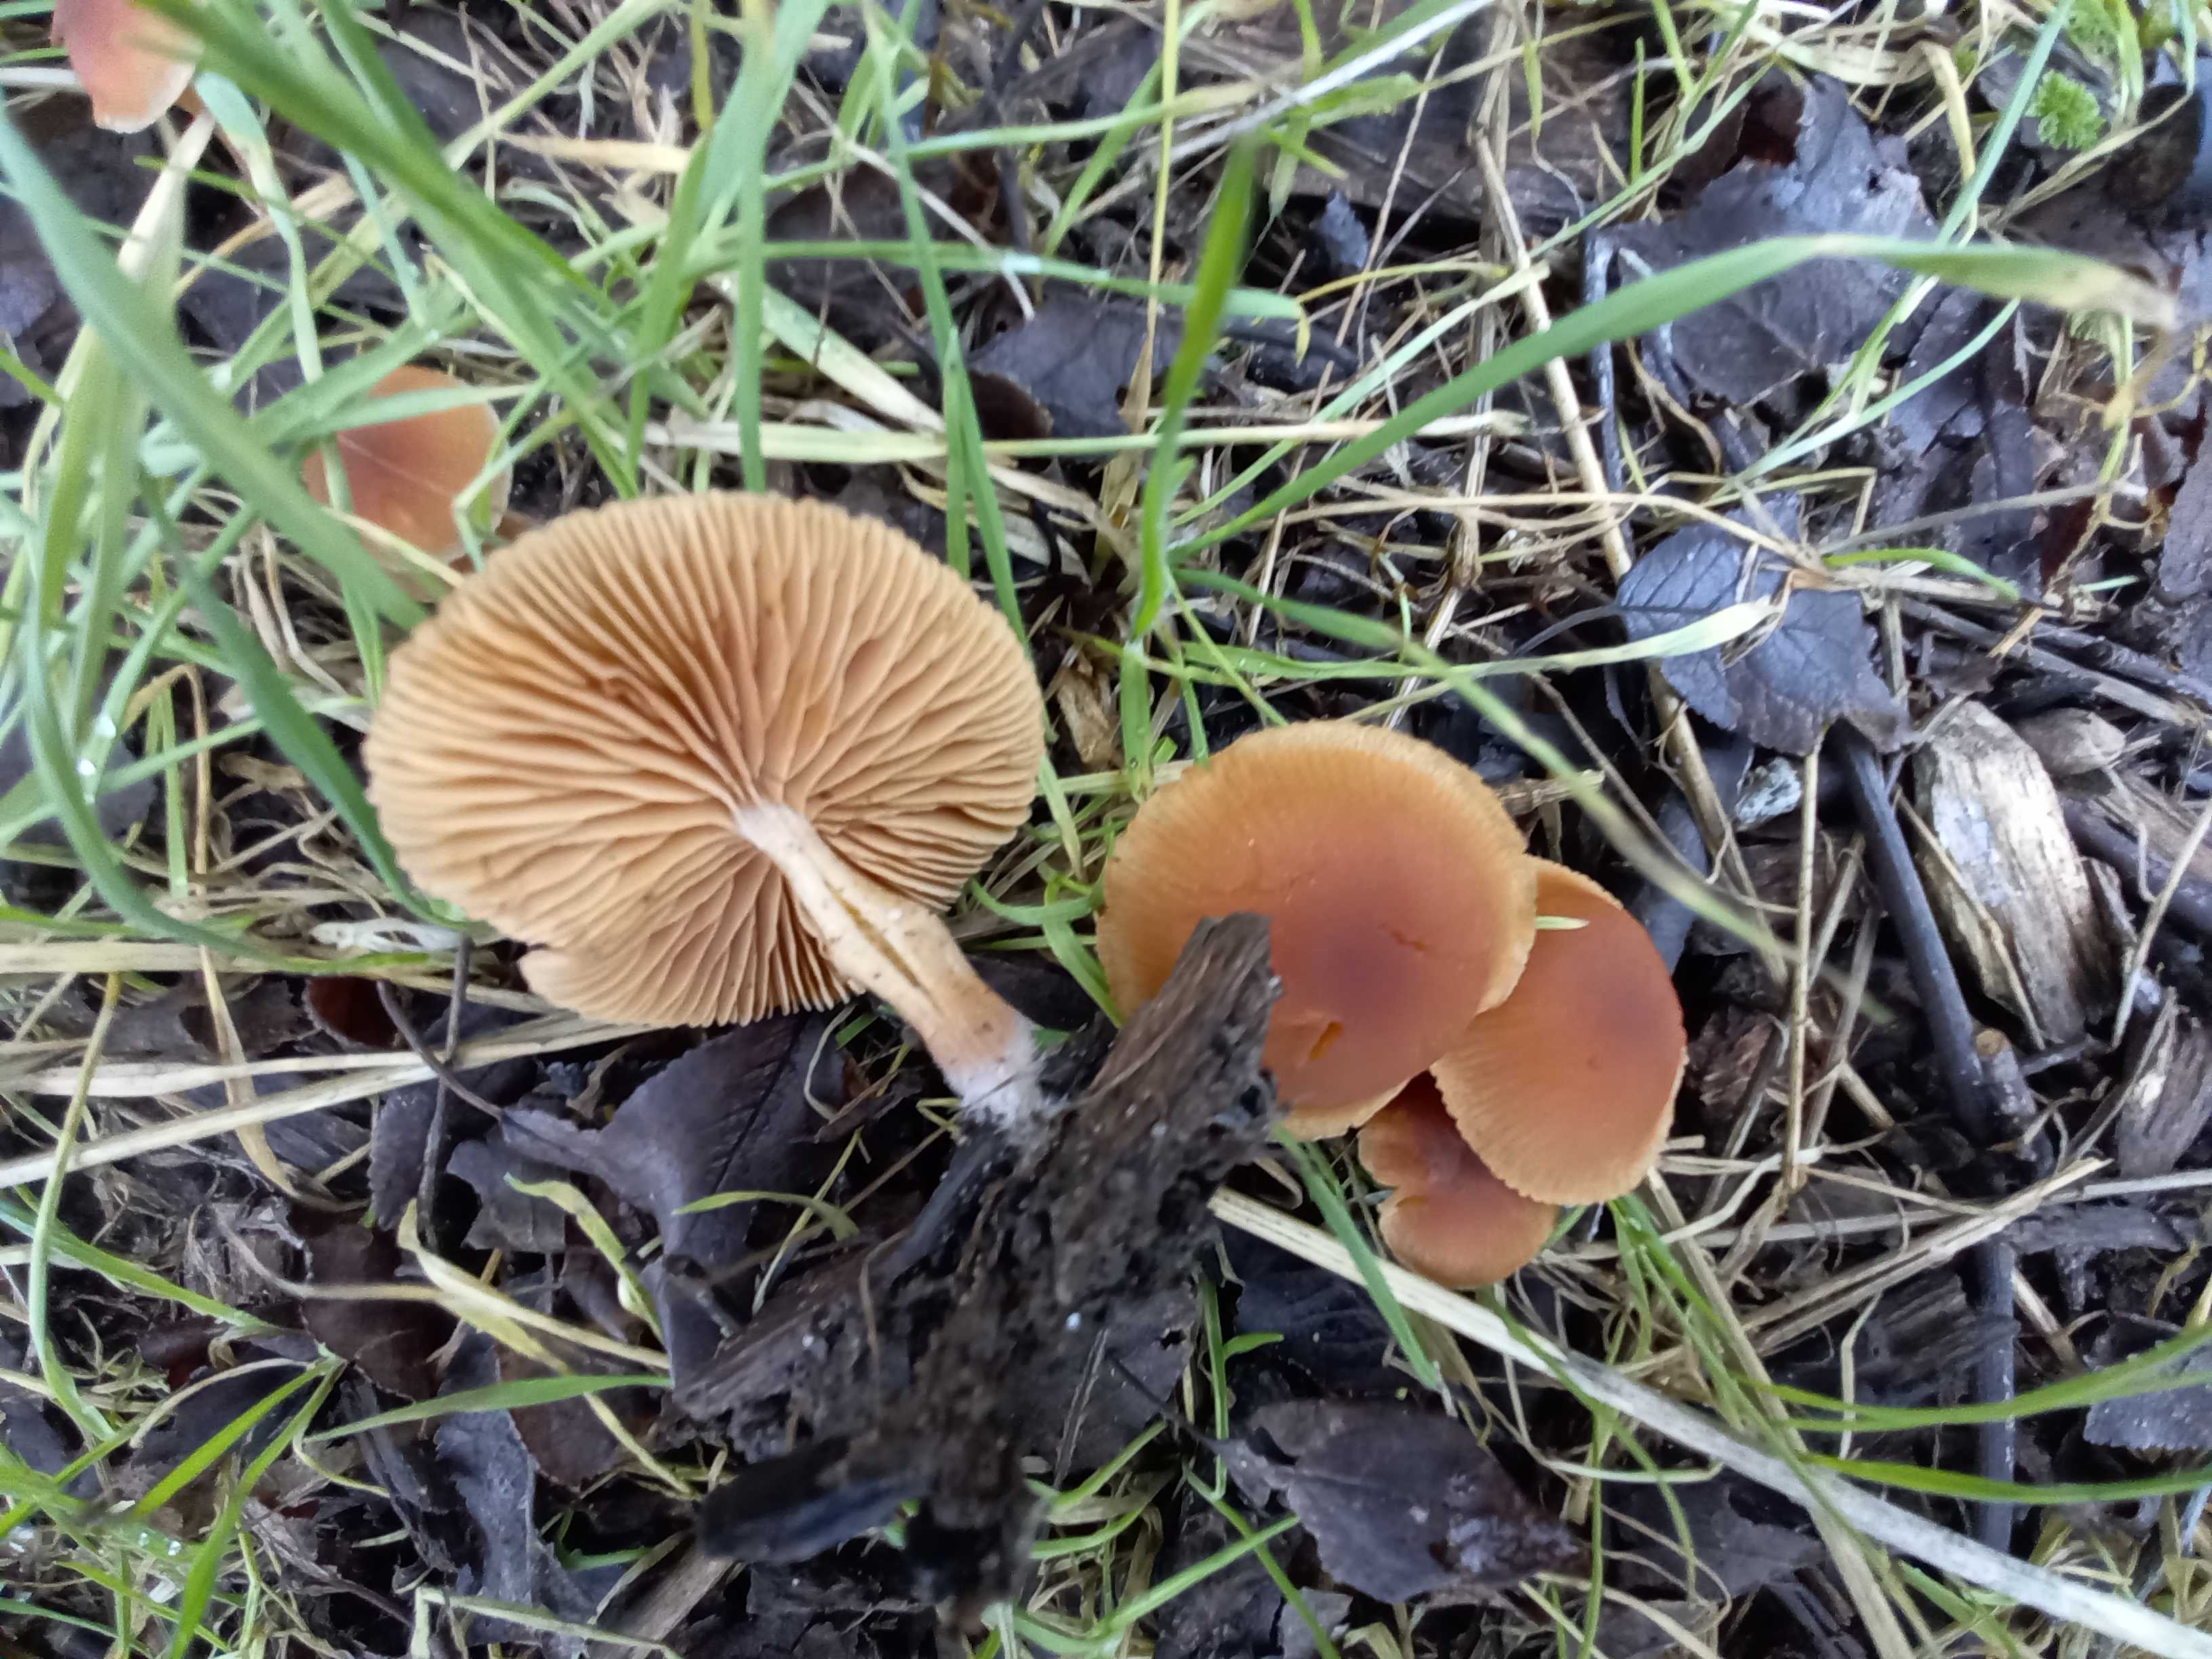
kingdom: Fungi
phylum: Basidiomycota
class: Agaricomycetes
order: Agaricales
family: Tubariaceae
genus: Tubaria
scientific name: Tubaria furfuracea
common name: kliddet fnughat
